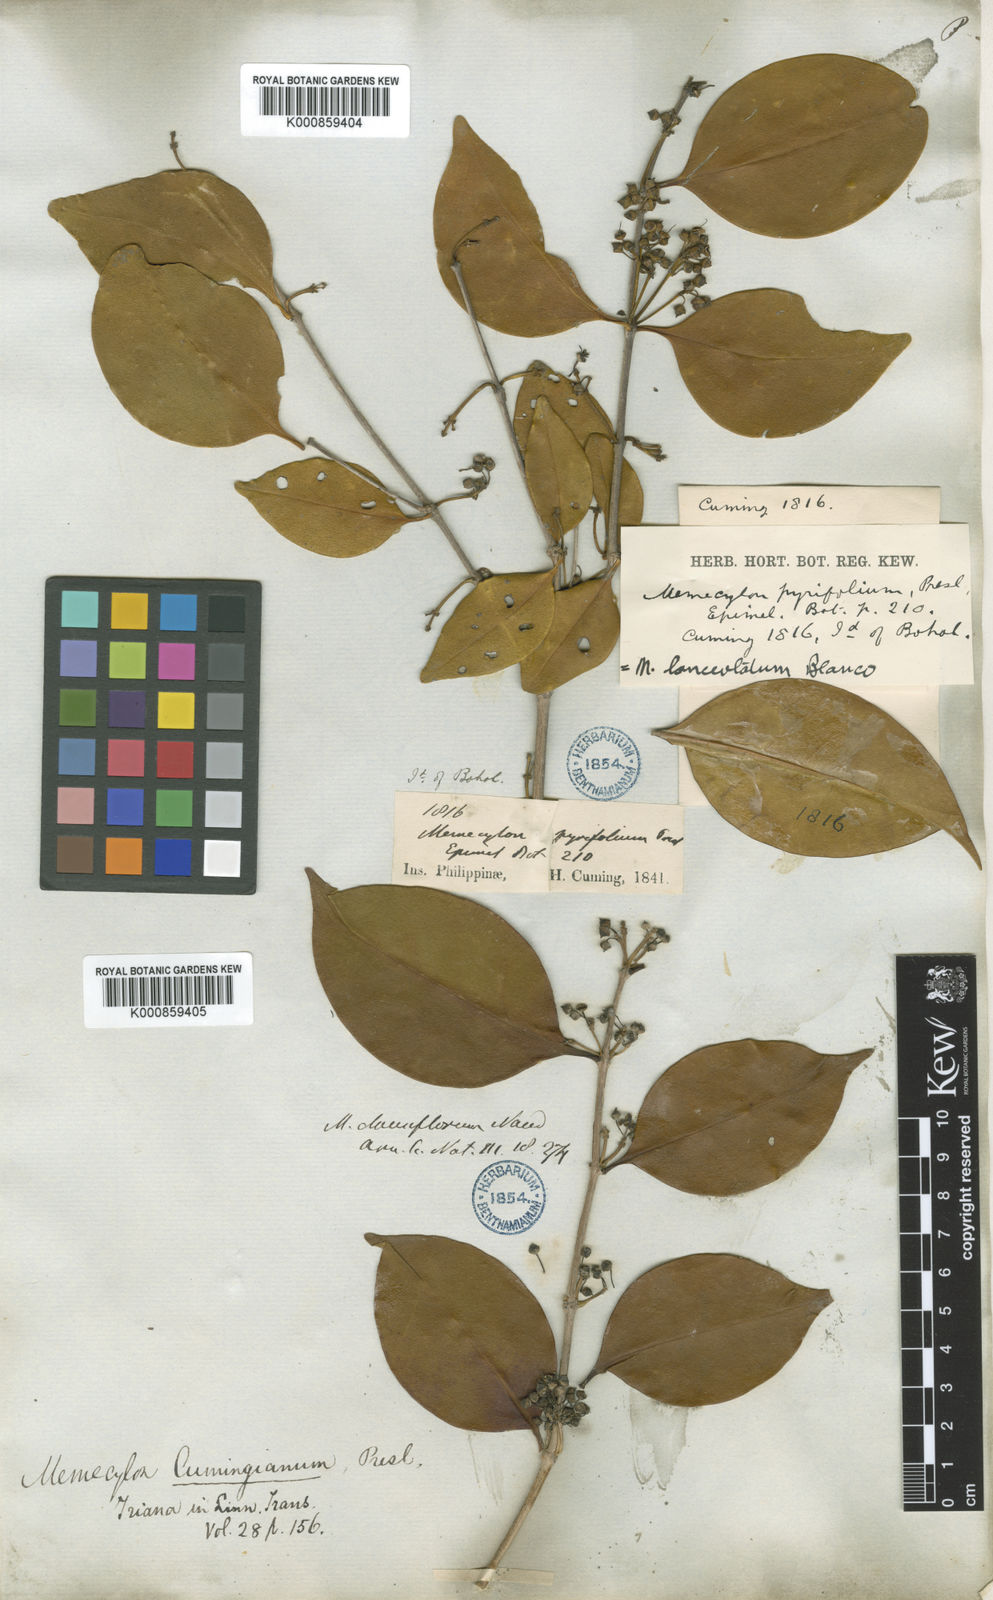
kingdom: Plantae
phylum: Tracheophyta
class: Magnoliopsida
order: Myrtales
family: Melastomataceae
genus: Memecylon
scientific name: Memecylon lanceolatum
